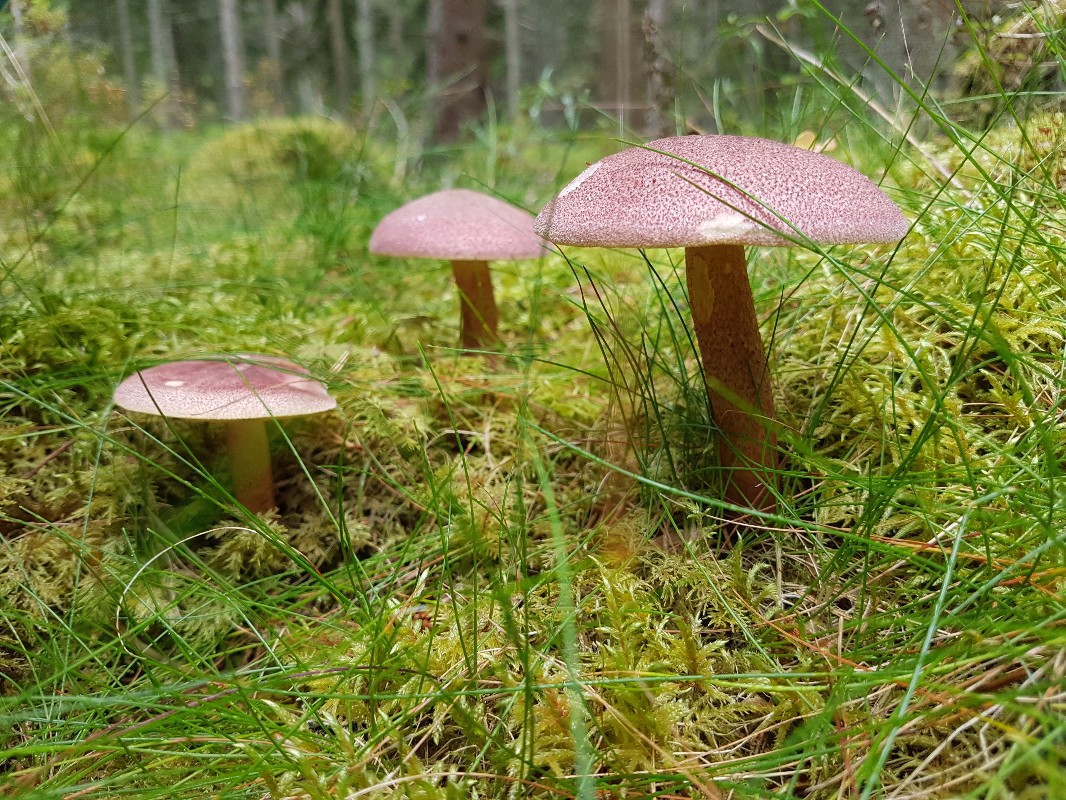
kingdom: Fungi
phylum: Basidiomycota
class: Agaricomycetes
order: Agaricales
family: Tricholomataceae
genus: Tricholomopsis
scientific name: Tricholomopsis rutilans
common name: purpur-væbnerhat
